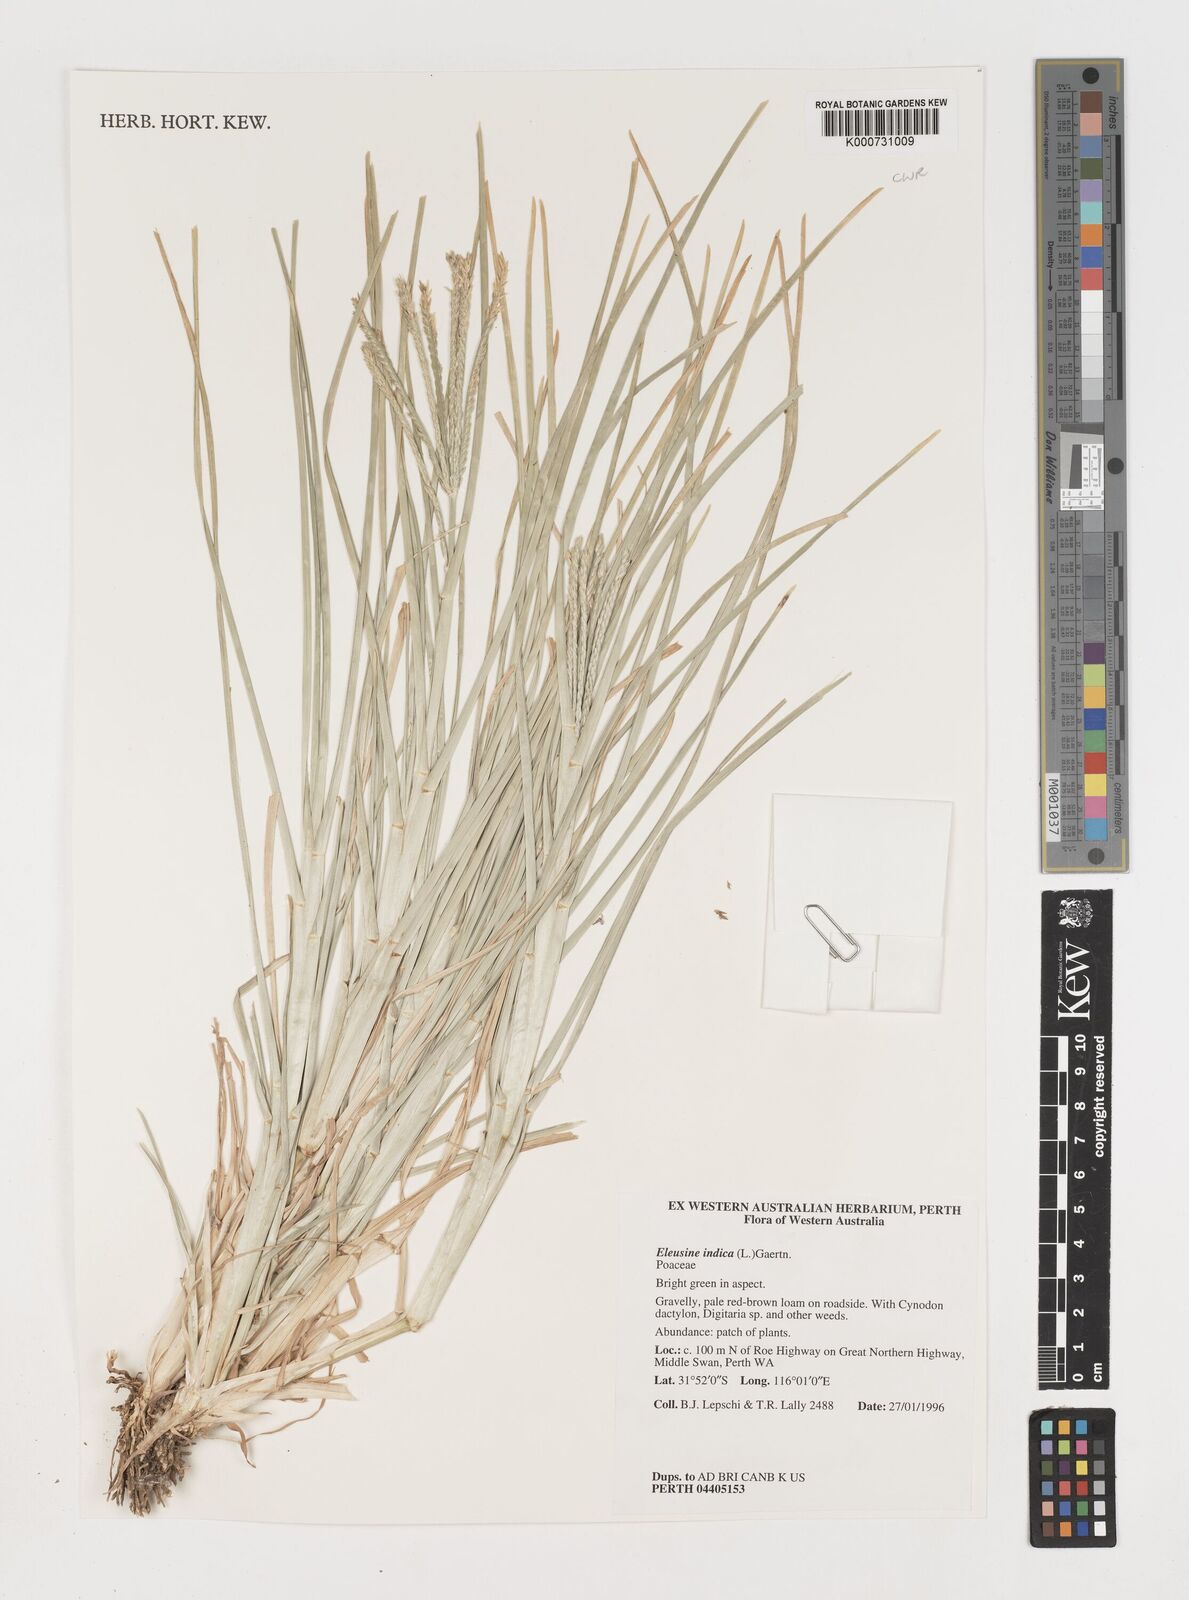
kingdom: Plantae
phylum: Tracheophyta
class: Liliopsida
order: Poales
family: Poaceae
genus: Eleusine
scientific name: Eleusine indica
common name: Yard-grass
